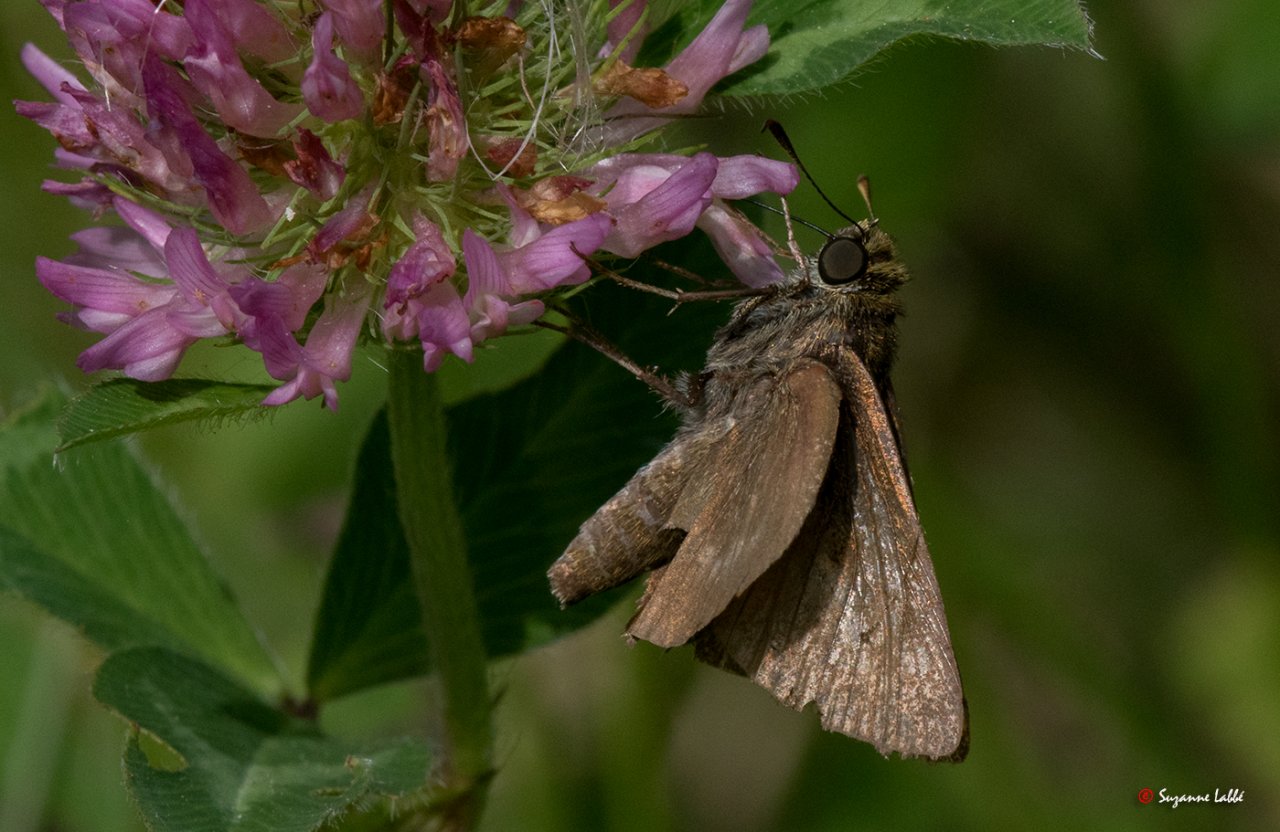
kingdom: Animalia
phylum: Arthropoda
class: Insecta
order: Lepidoptera
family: Hesperiidae
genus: Euphyes
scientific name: Euphyes vestris
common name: Dun Skipper
